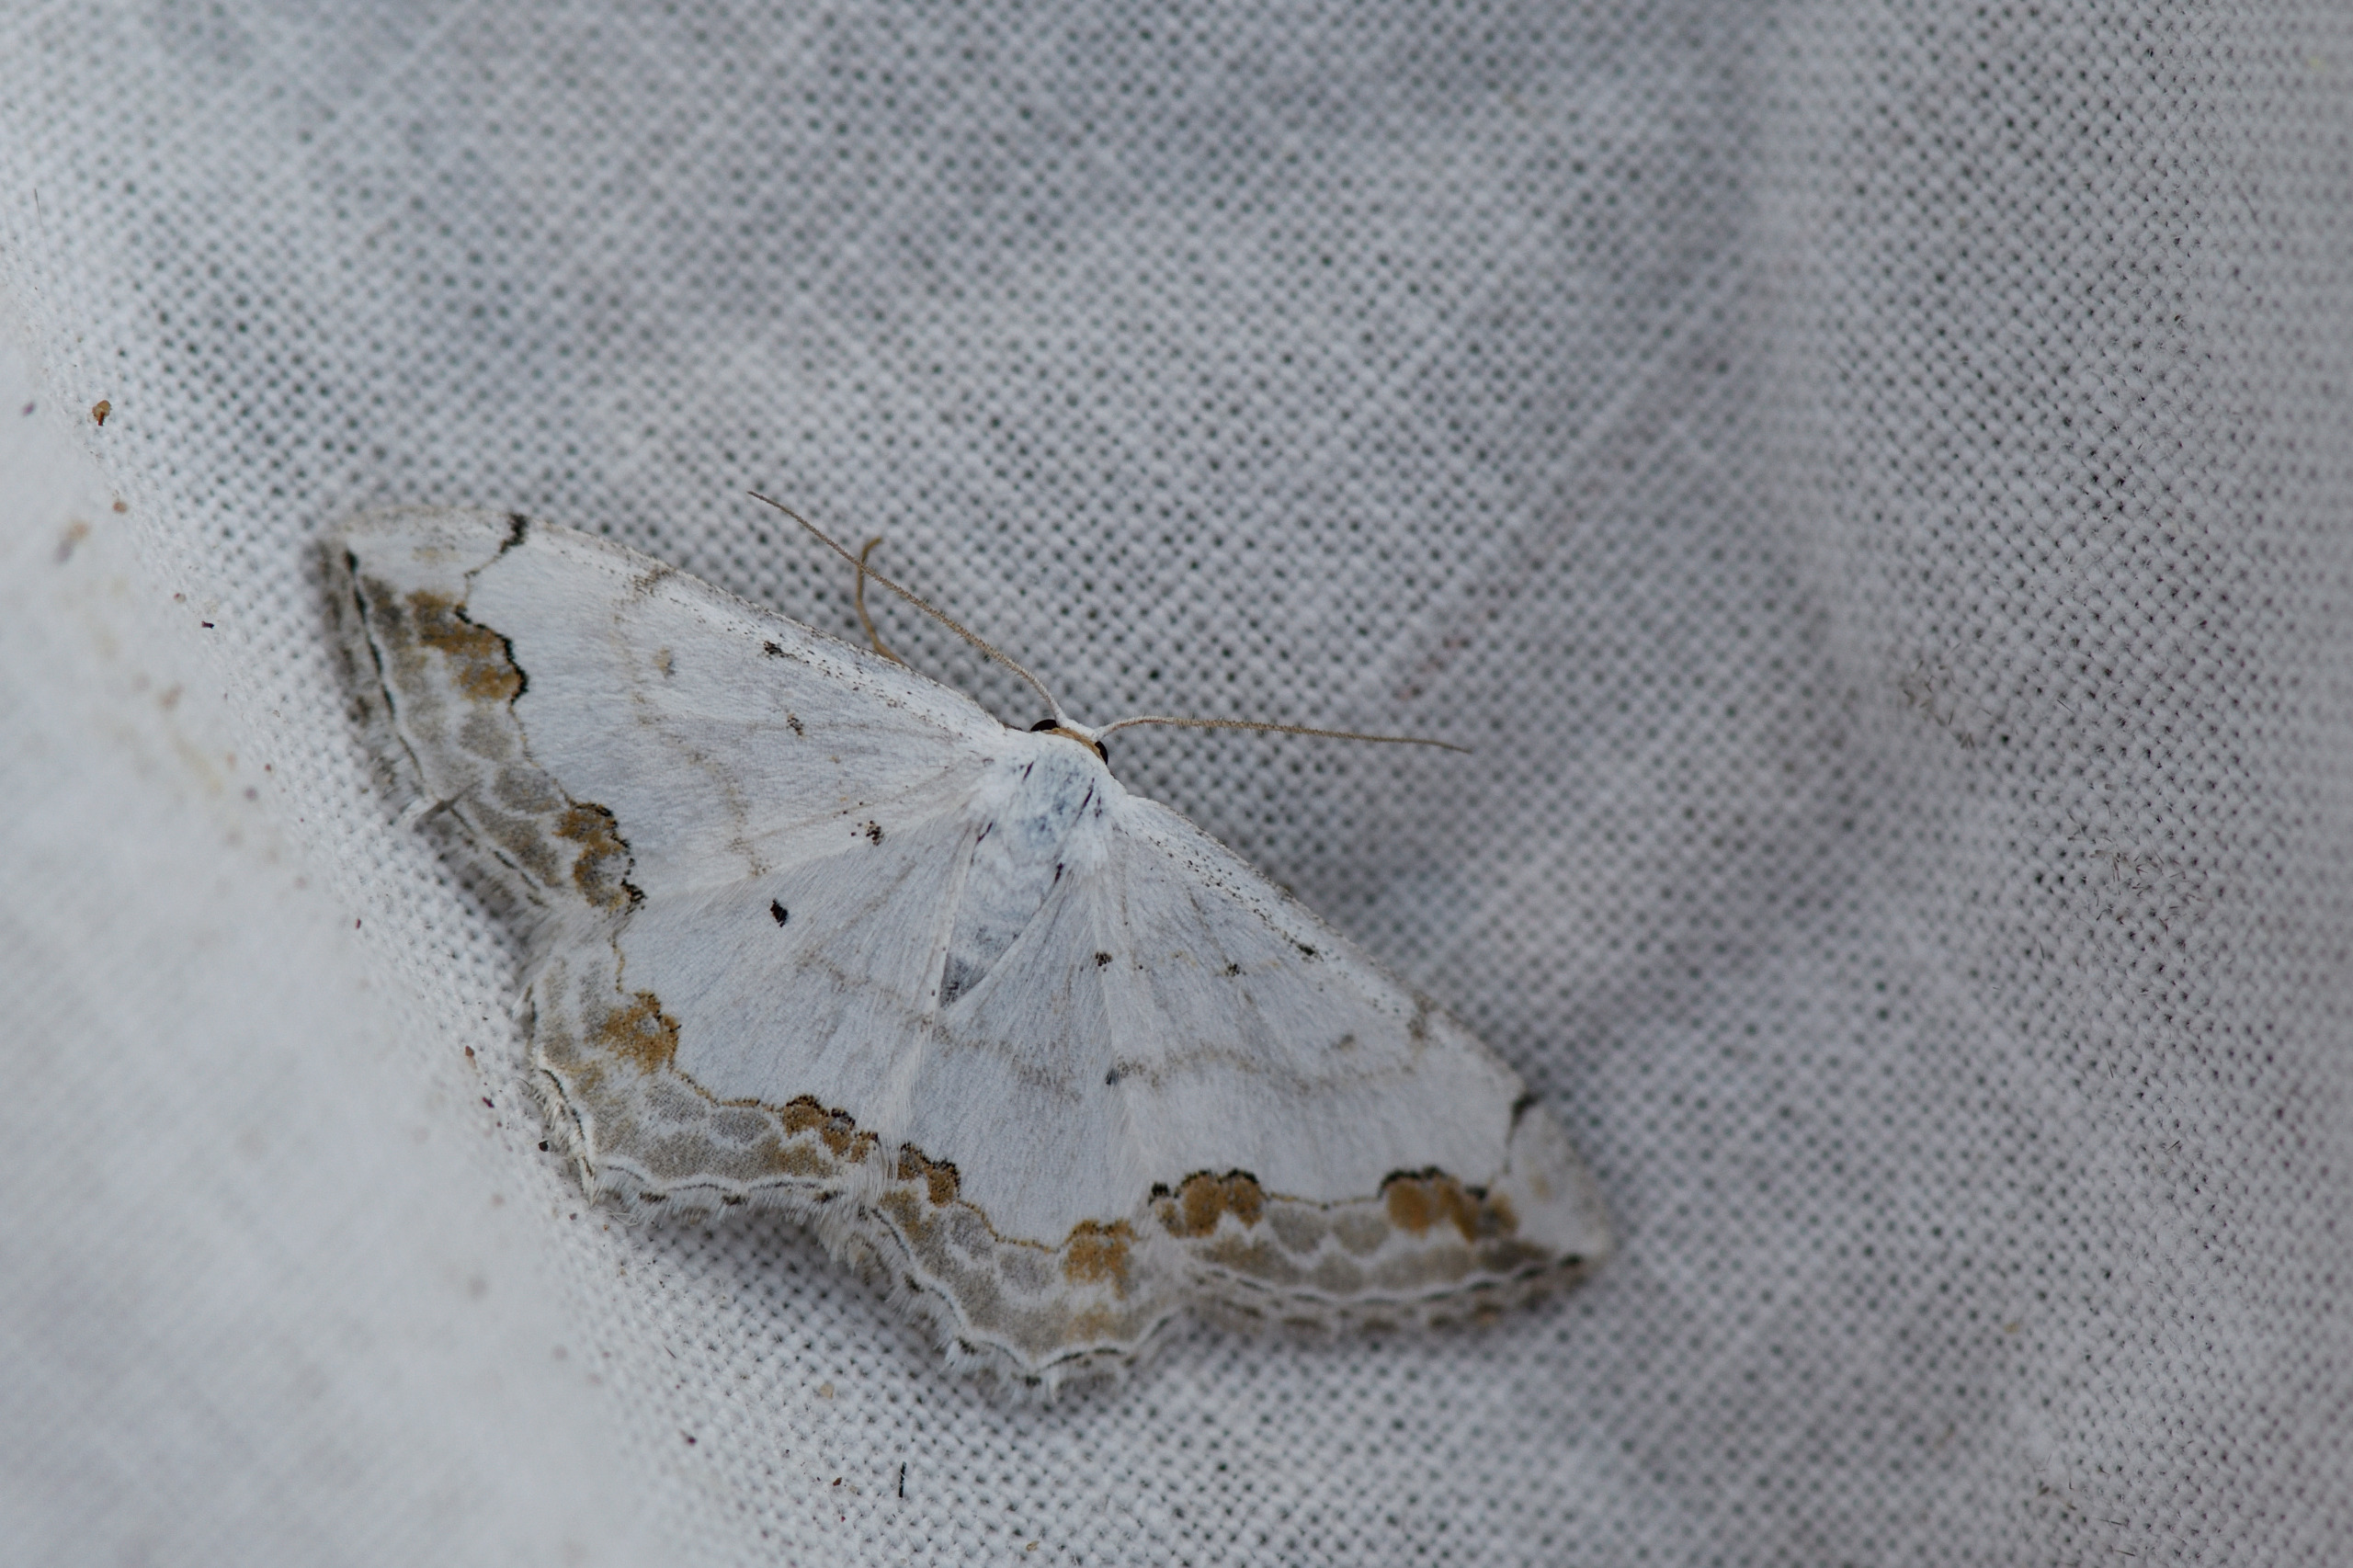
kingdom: Animalia
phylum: Arthropoda
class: Insecta
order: Lepidoptera
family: Geometridae
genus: Scopula
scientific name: Scopula ornata
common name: Pyntelig løvmåler
